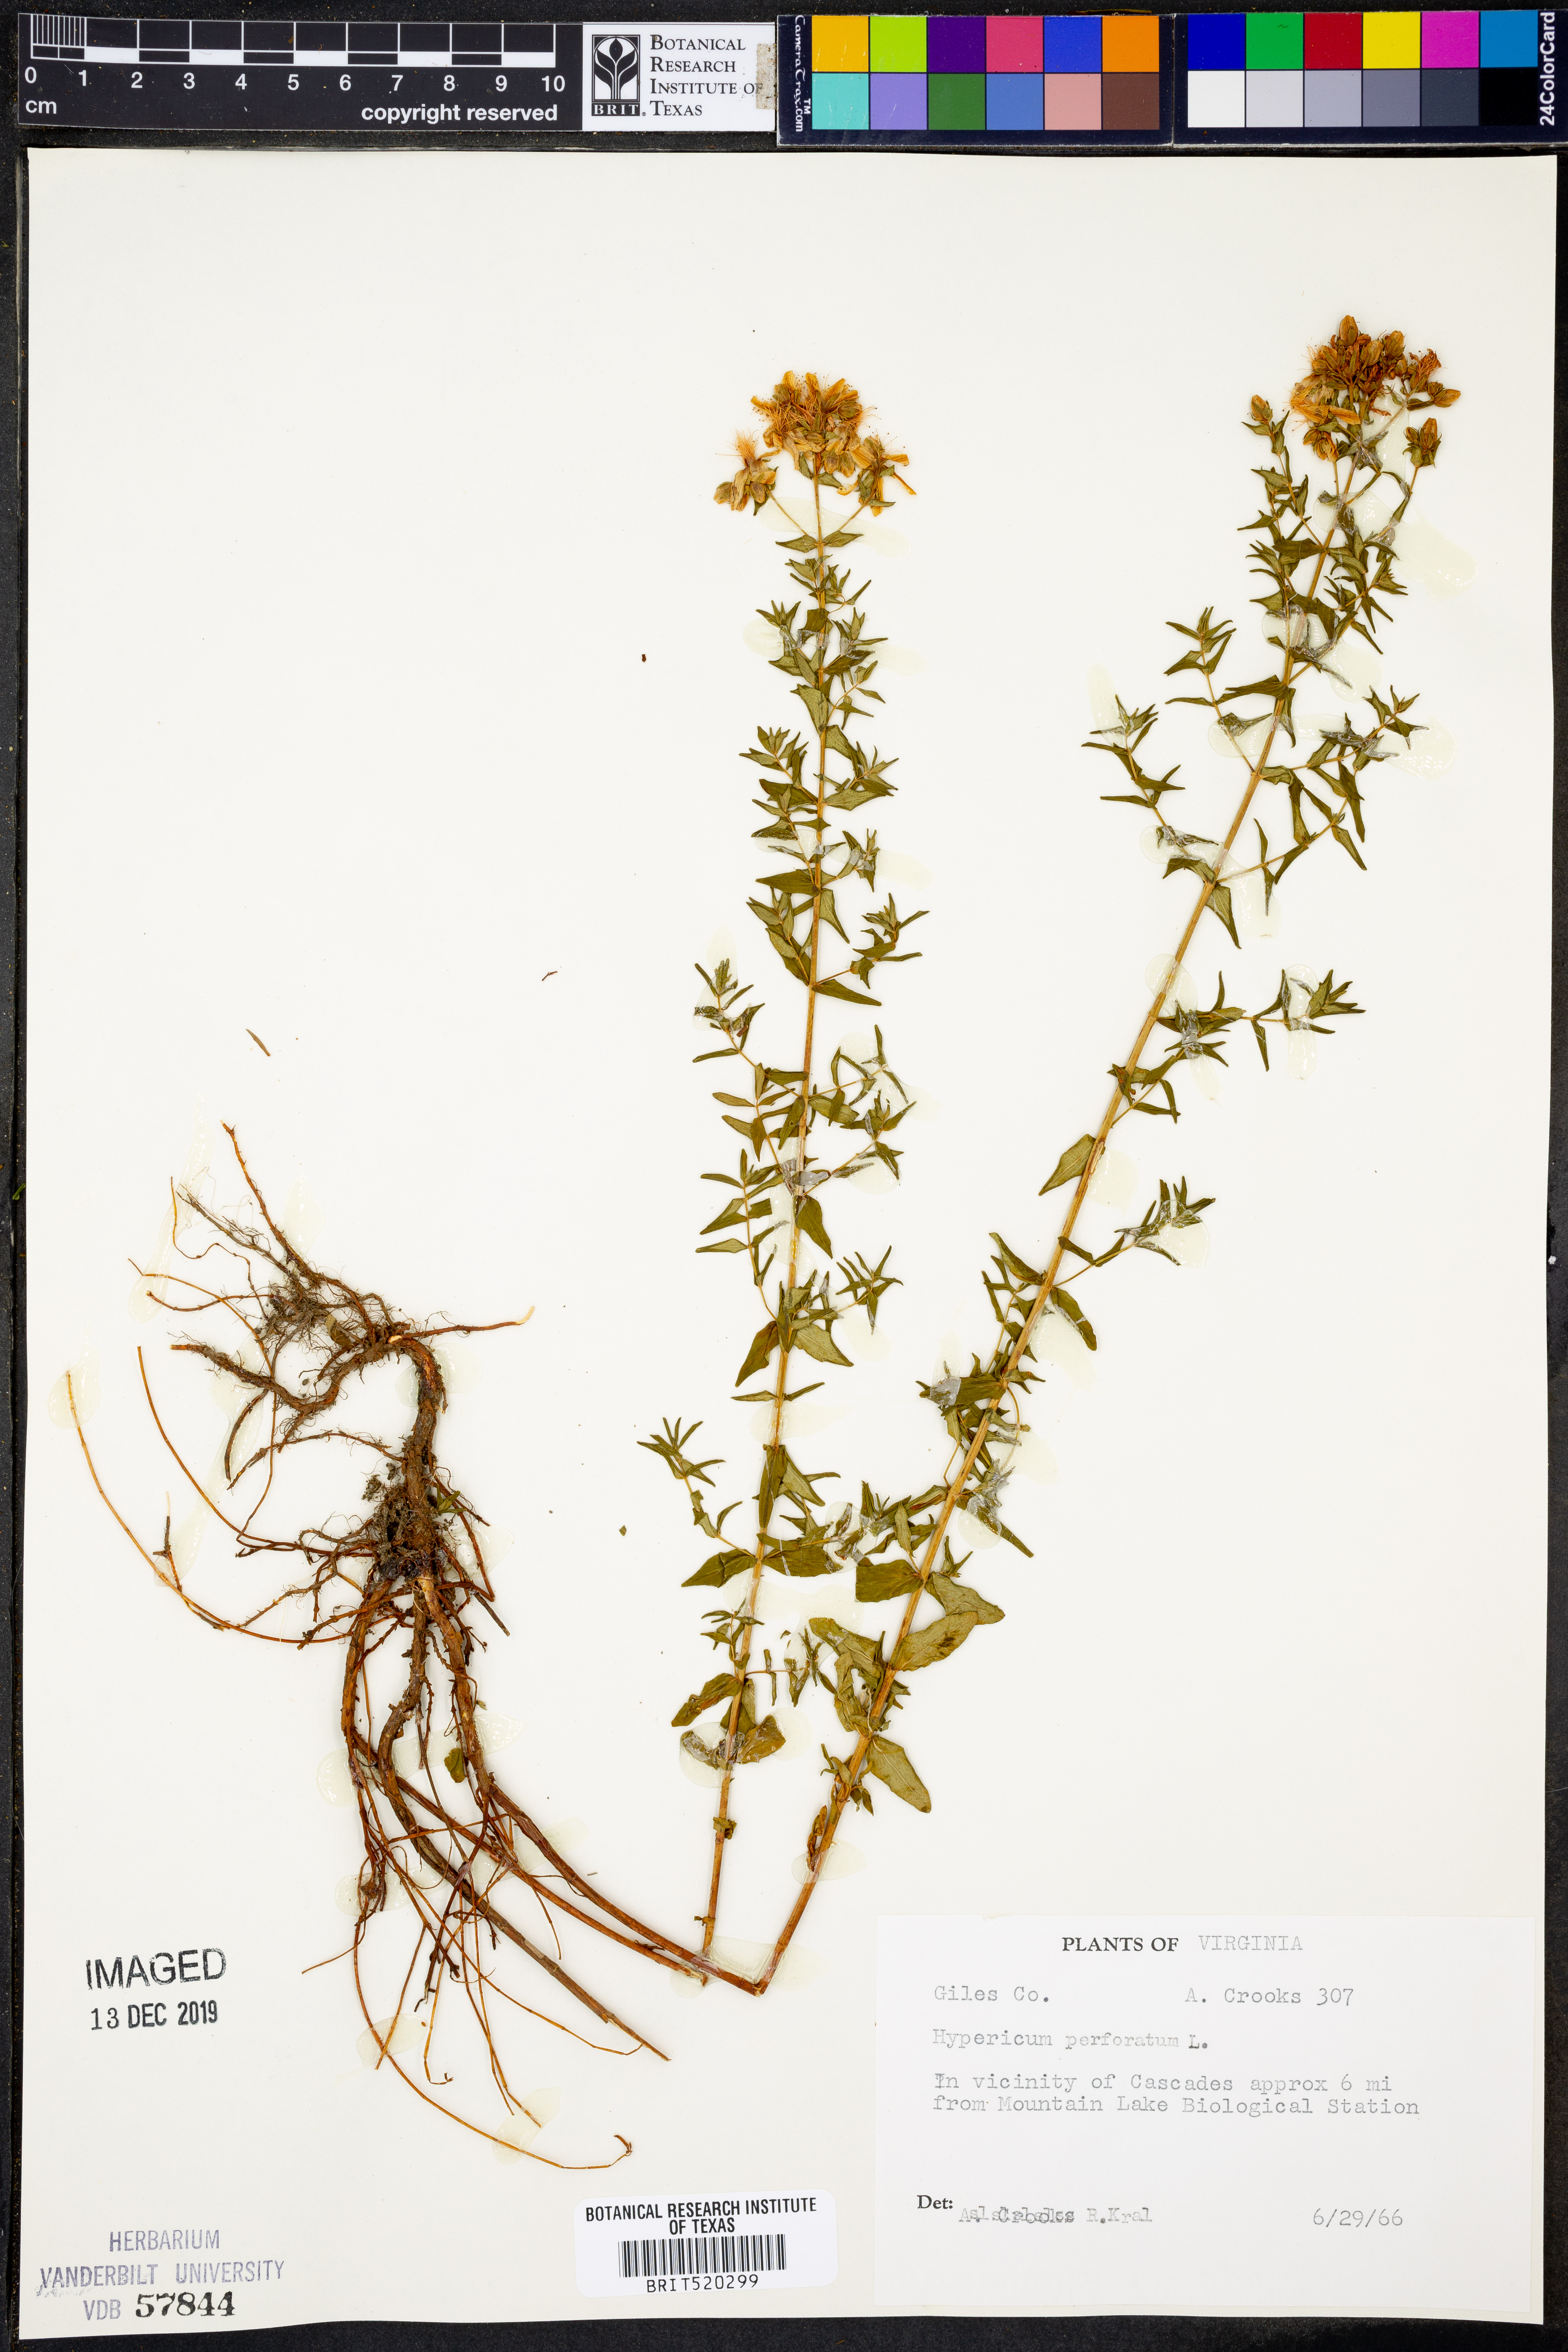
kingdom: Plantae
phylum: Tracheophyta
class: Magnoliopsida
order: Malpighiales
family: Hypericaceae
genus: Hypericum
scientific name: Hypericum perforatum
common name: Common st. johnswort
